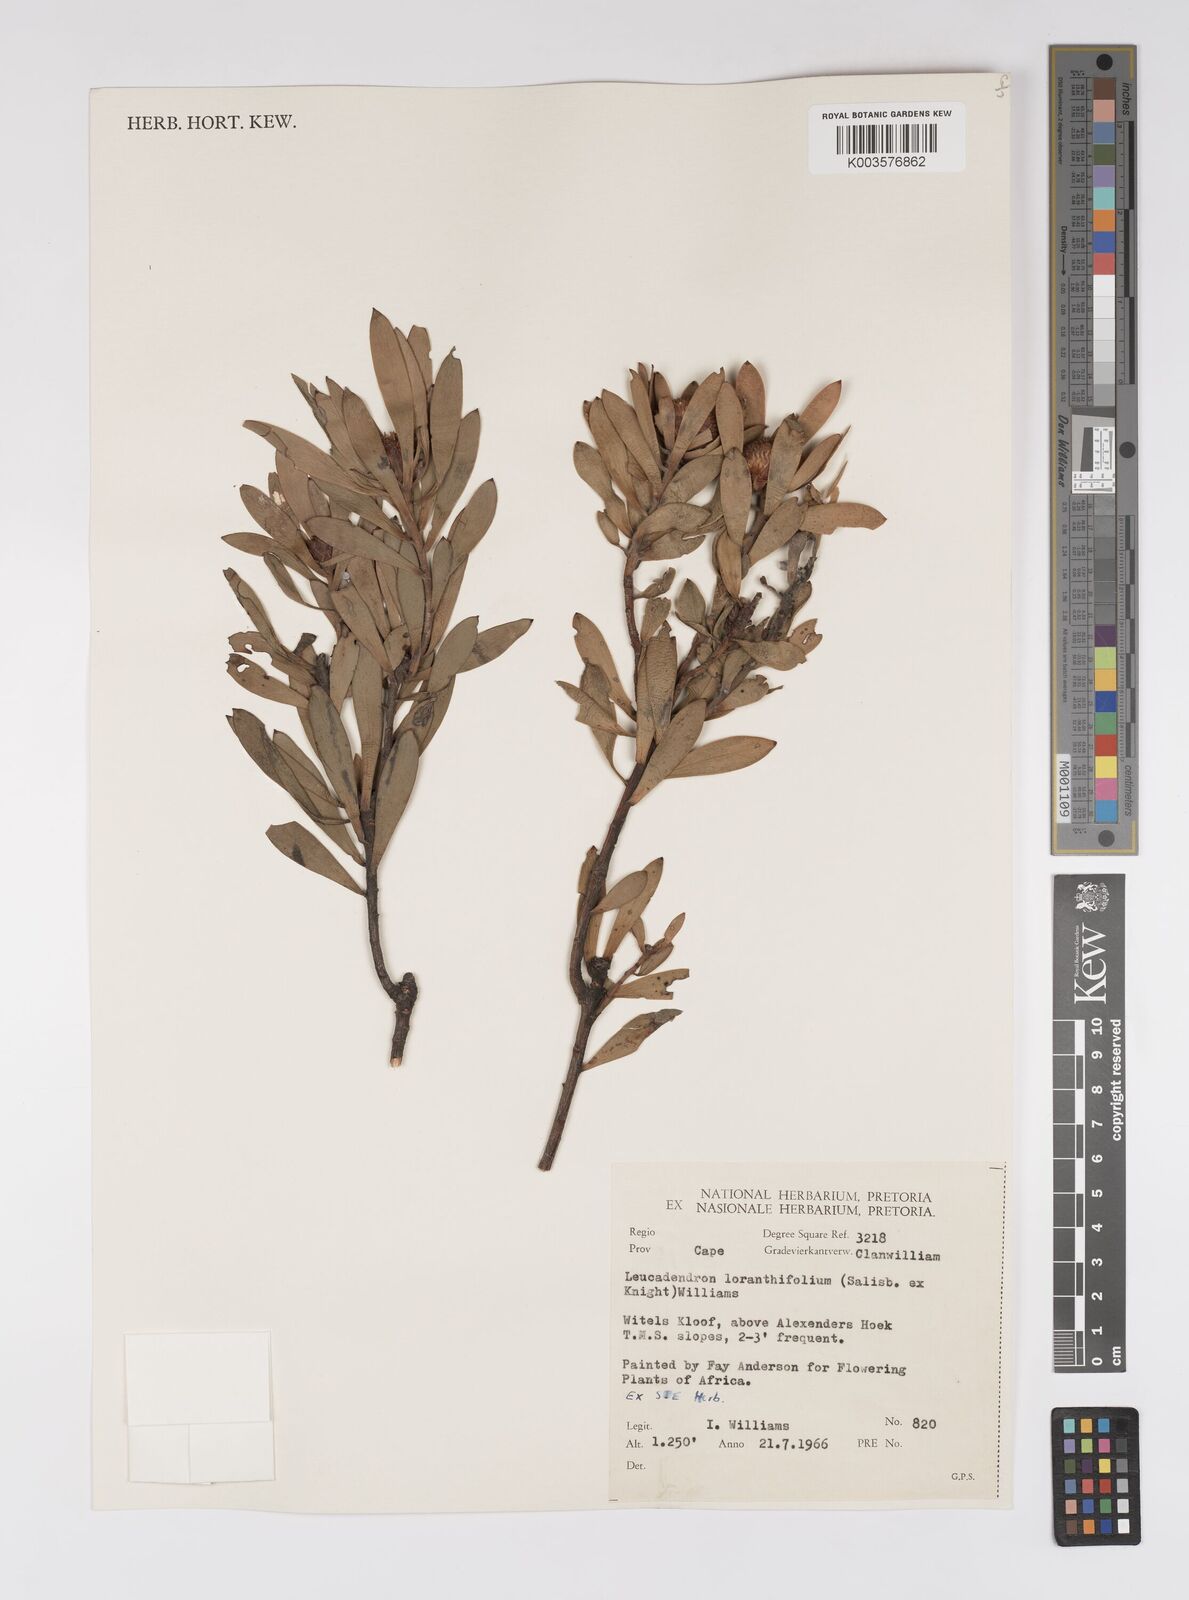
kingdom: Plantae
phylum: Tracheophyta
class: Magnoliopsida
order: Proteales
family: Proteaceae
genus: Leucadendron
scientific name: Leucadendron loranthifolium
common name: Green-flower sunbush
